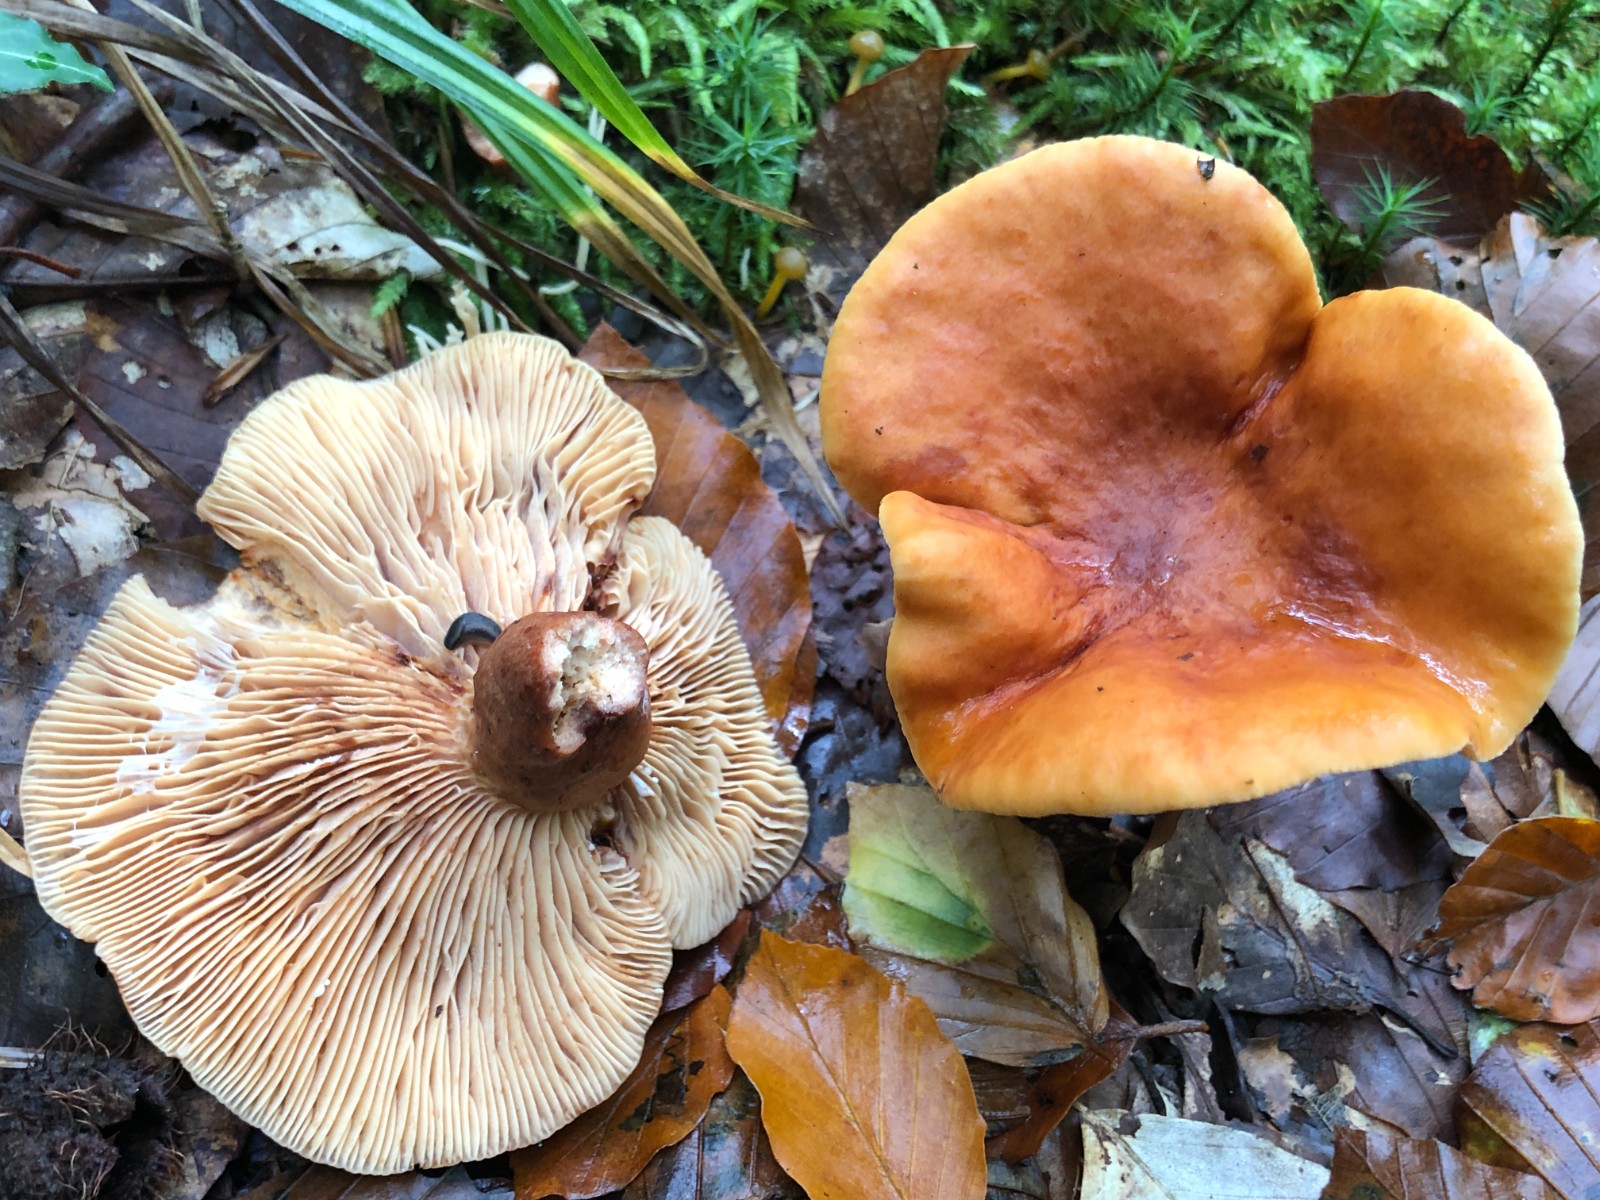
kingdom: Fungi
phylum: Basidiomycota
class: Agaricomycetes
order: Russulales
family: Russulaceae
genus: Lactarius
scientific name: Lactarius fulvissimus
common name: ræve-mælkehat
